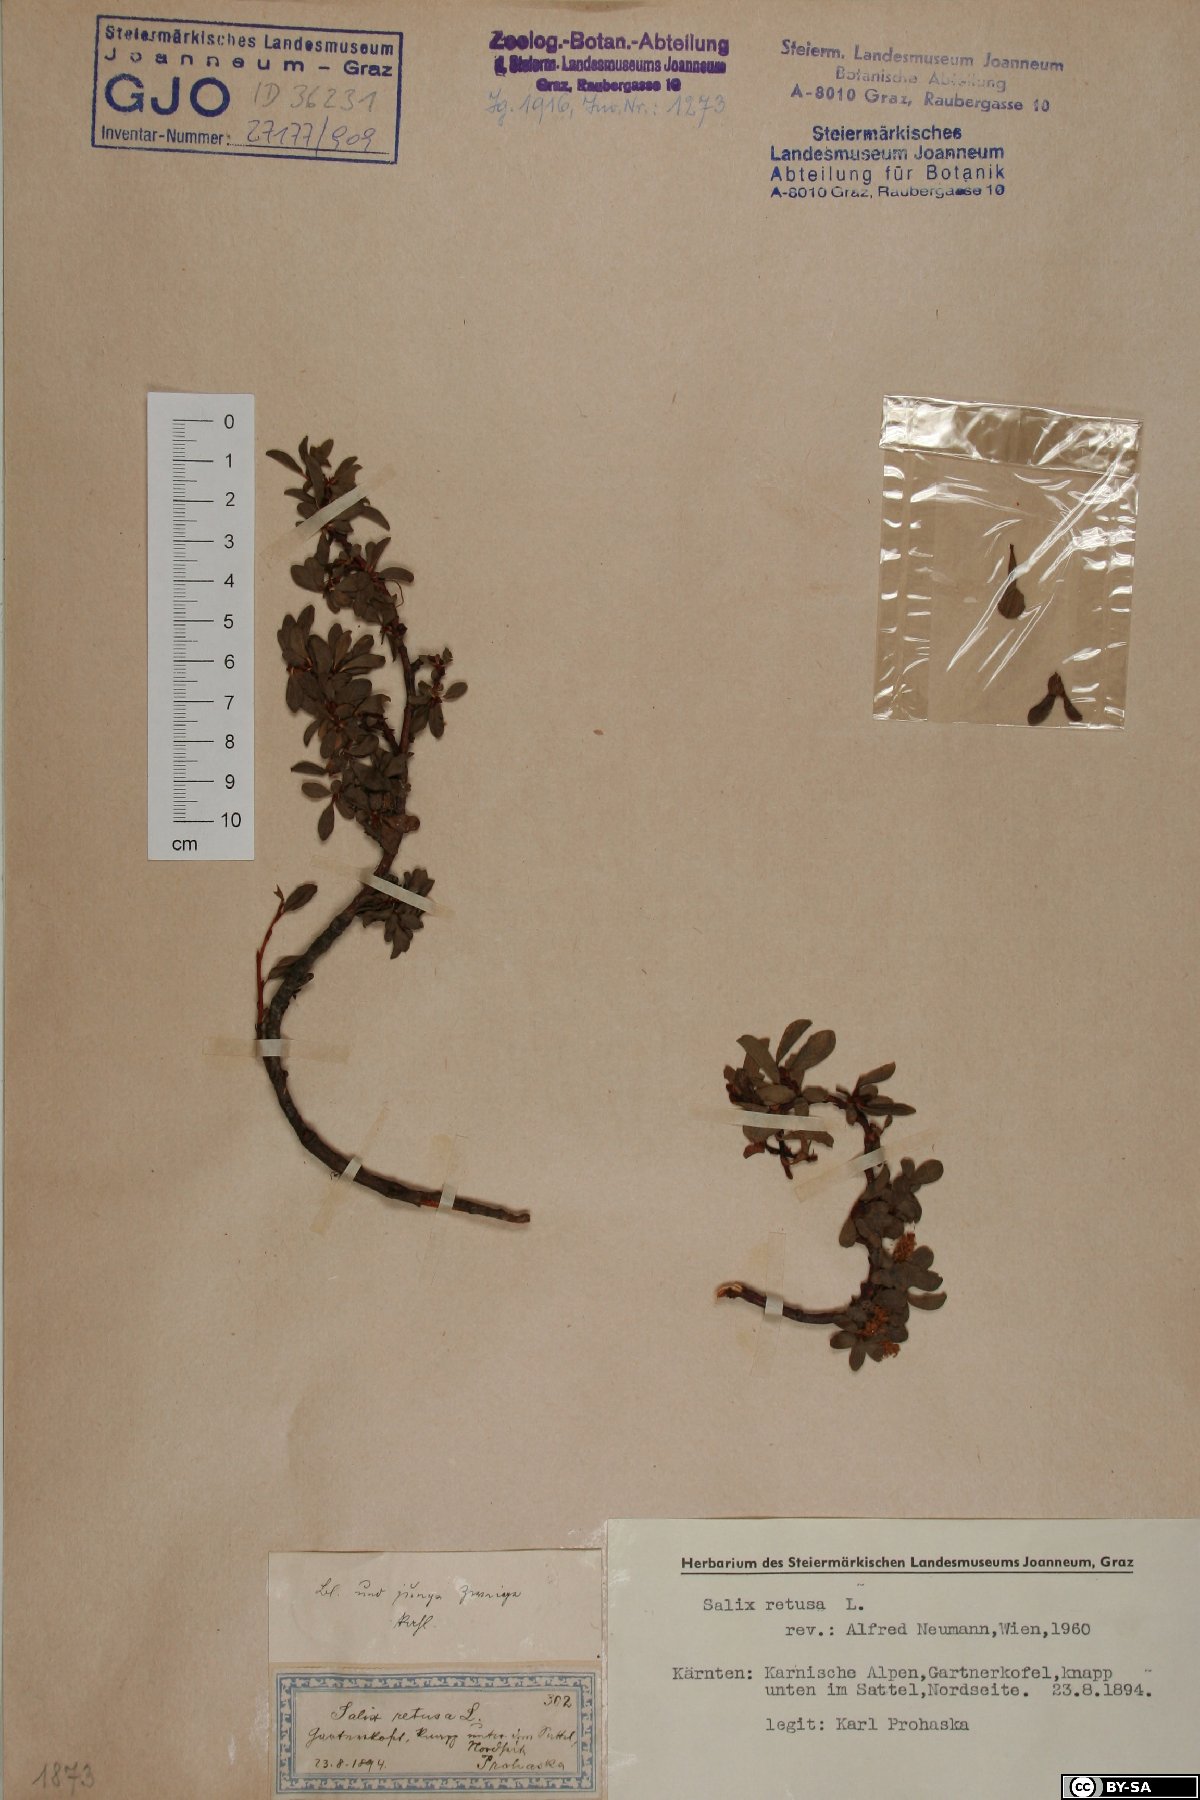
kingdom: Plantae
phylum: Tracheophyta
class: Magnoliopsida
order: Malpighiales
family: Salicaceae
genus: Salix
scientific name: Salix retusa
